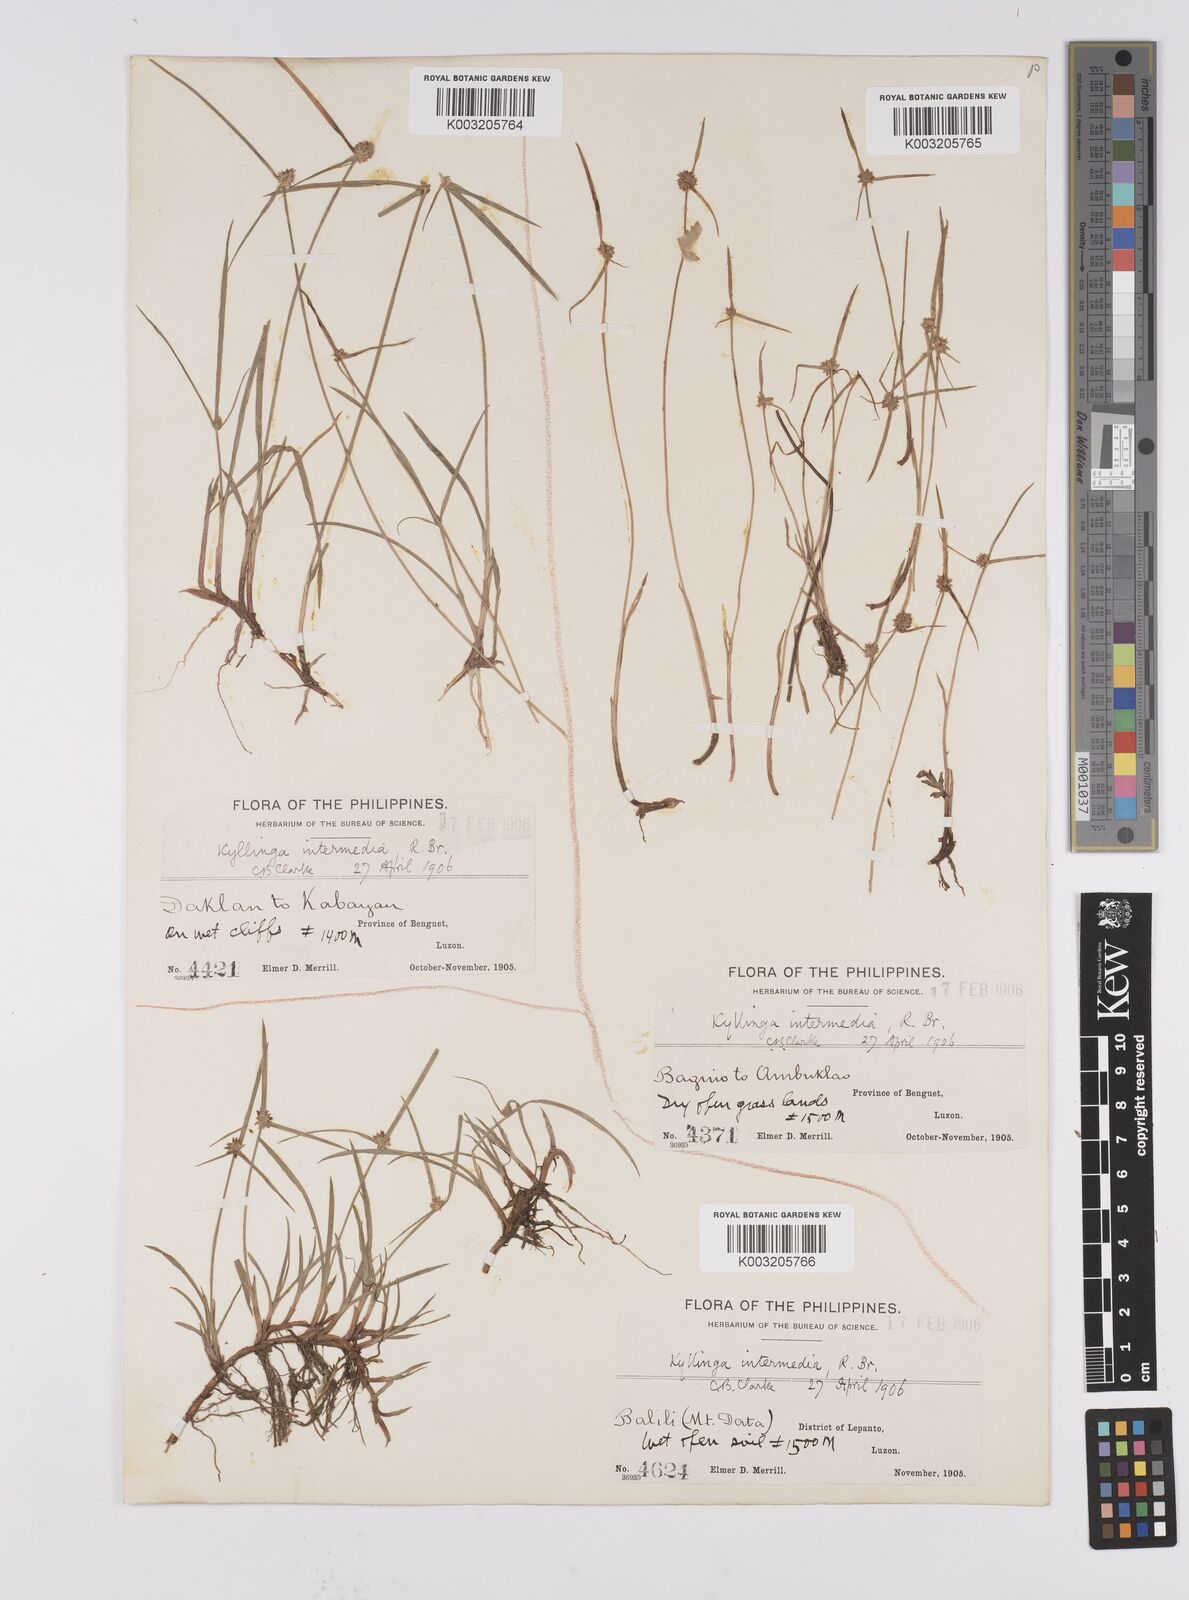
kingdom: Plantae
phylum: Tracheophyta
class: Liliopsida
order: Poales
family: Cyperaceae
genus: Cyperus
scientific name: Cyperus brevifolius
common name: Globe kyllinga
